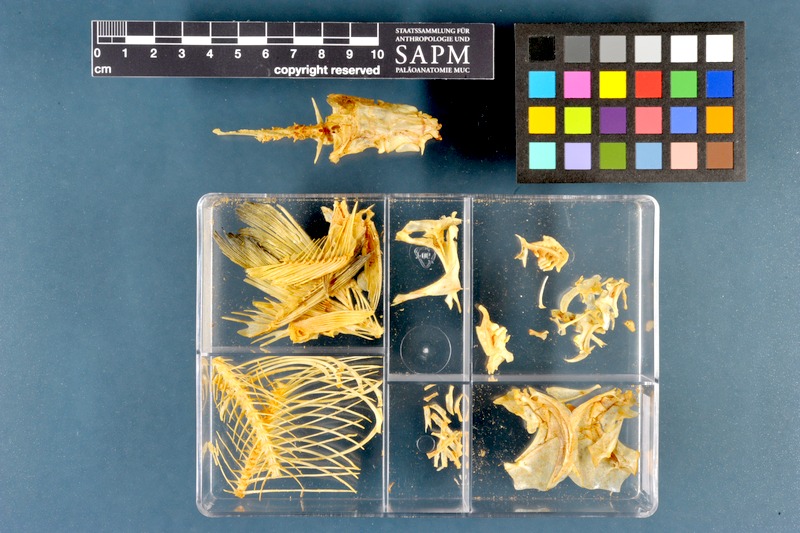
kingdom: Animalia
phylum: Chordata
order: Cypriniformes
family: Cyprinidae
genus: Rutilus
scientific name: Rutilus rutilus
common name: Roach
